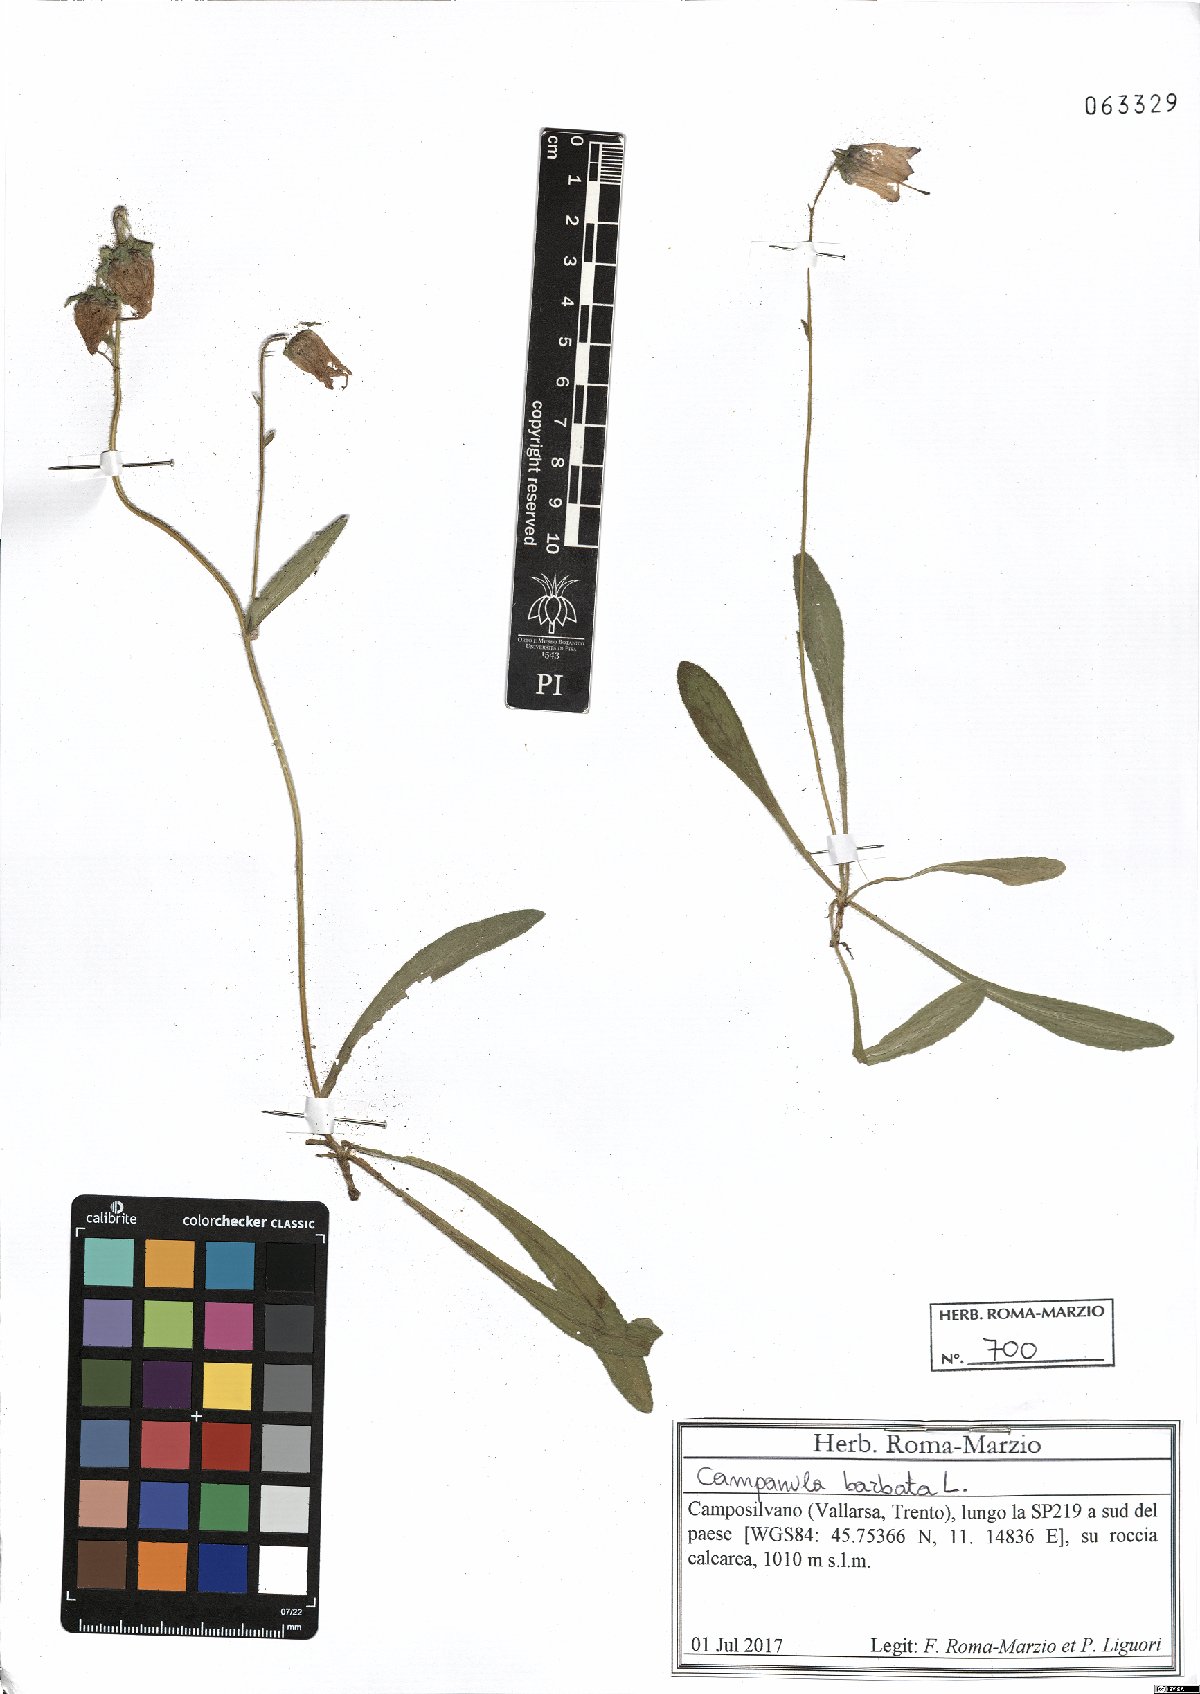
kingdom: Plantae
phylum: Tracheophyta
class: Magnoliopsida
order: Asterales
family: Campanulaceae
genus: Campanula
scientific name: Campanula barbata
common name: Bearded bellflower
